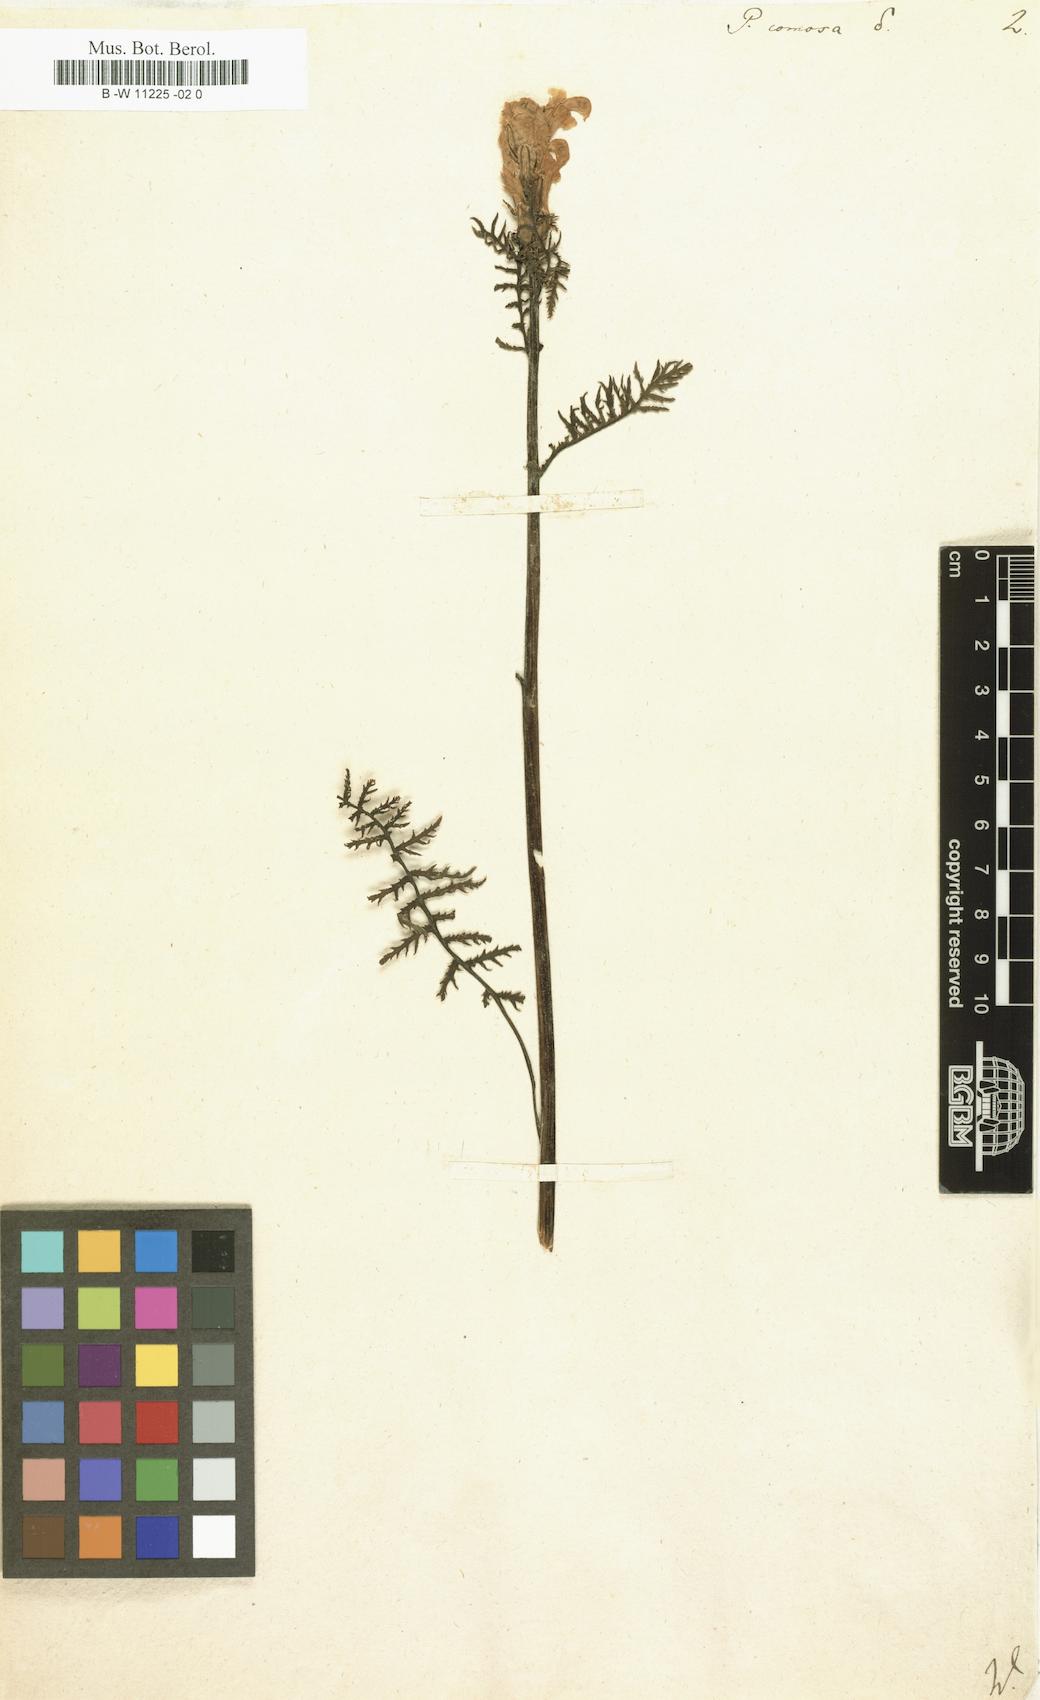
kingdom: Plantae
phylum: Tracheophyta
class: Magnoliopsida
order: Lamiales
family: Orobanchaceae
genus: Pedicularis
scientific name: Pedicularis comosa
